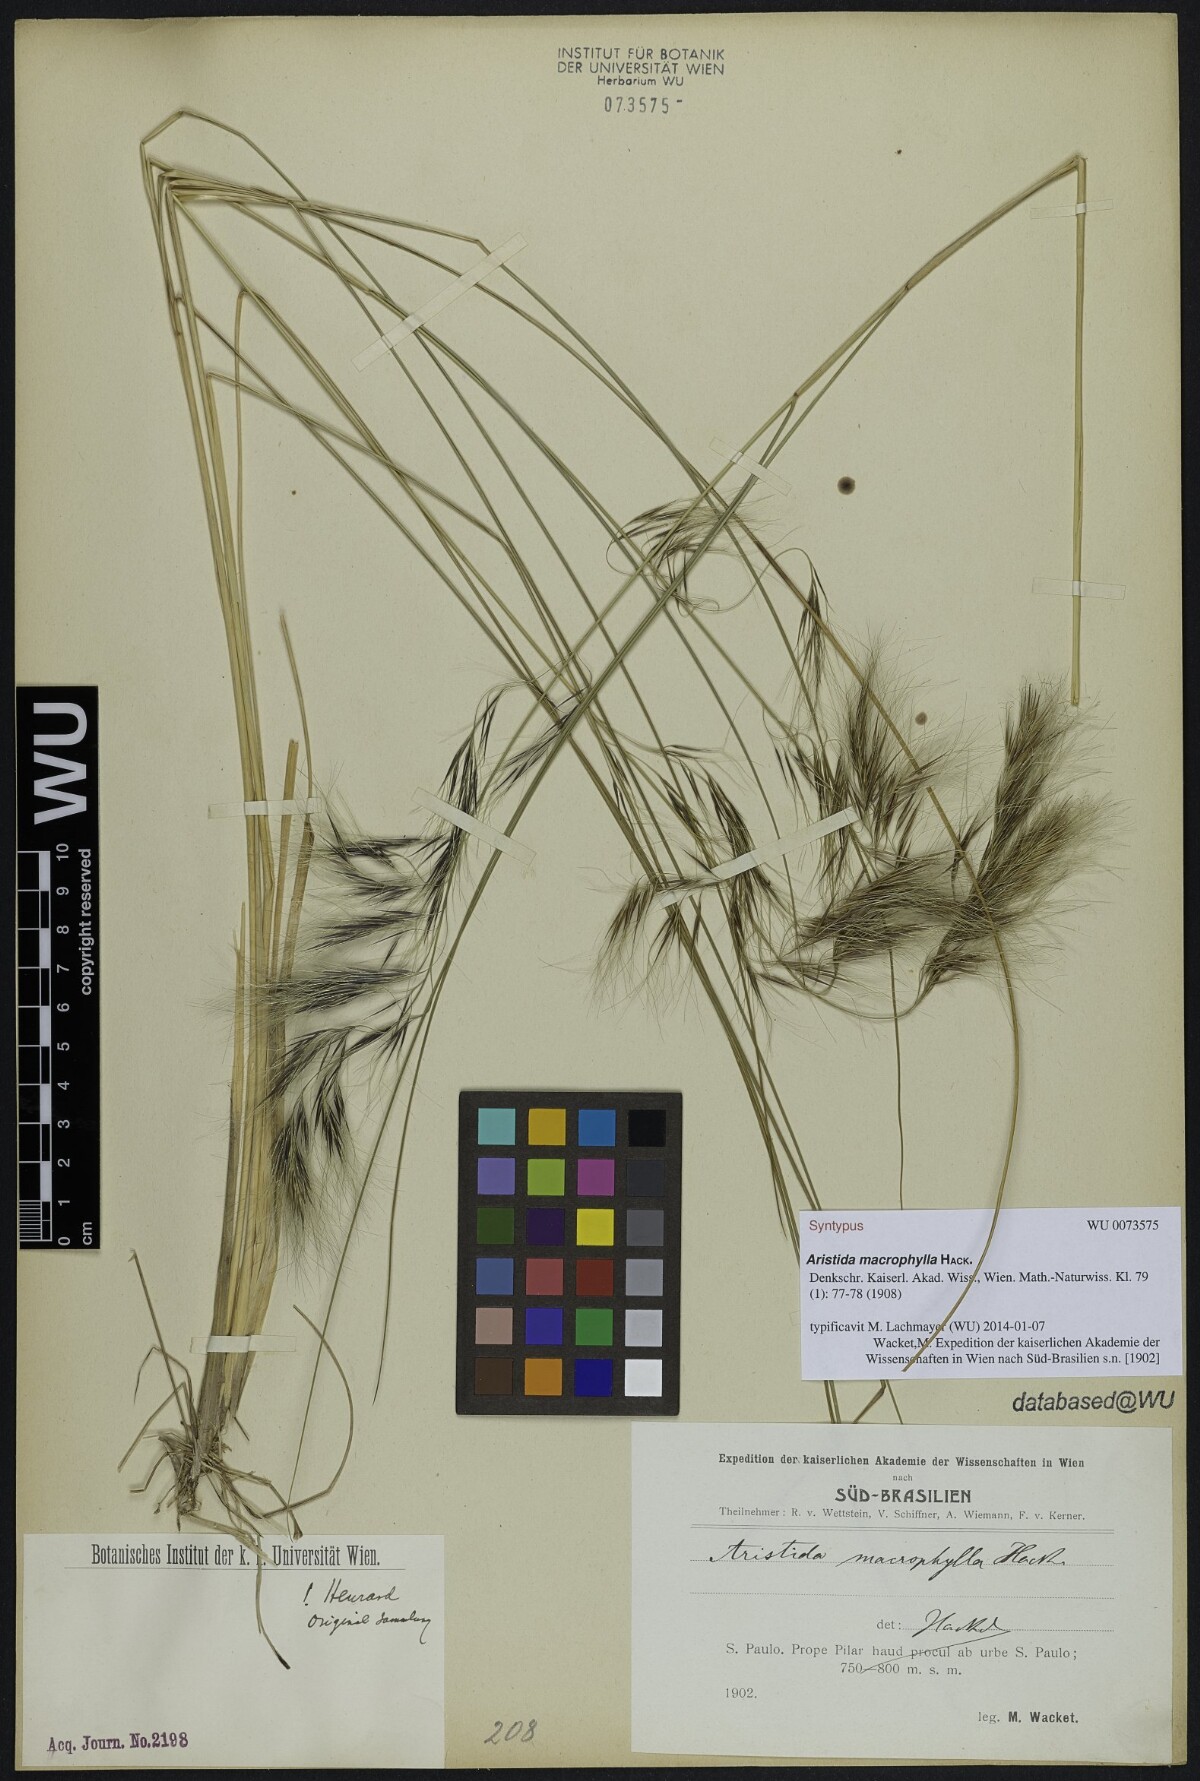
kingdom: Plantae
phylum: Tracheophyta
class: Liliopsida
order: Poales
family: Poaceae
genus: Aristida
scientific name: Aristida macrophylla
